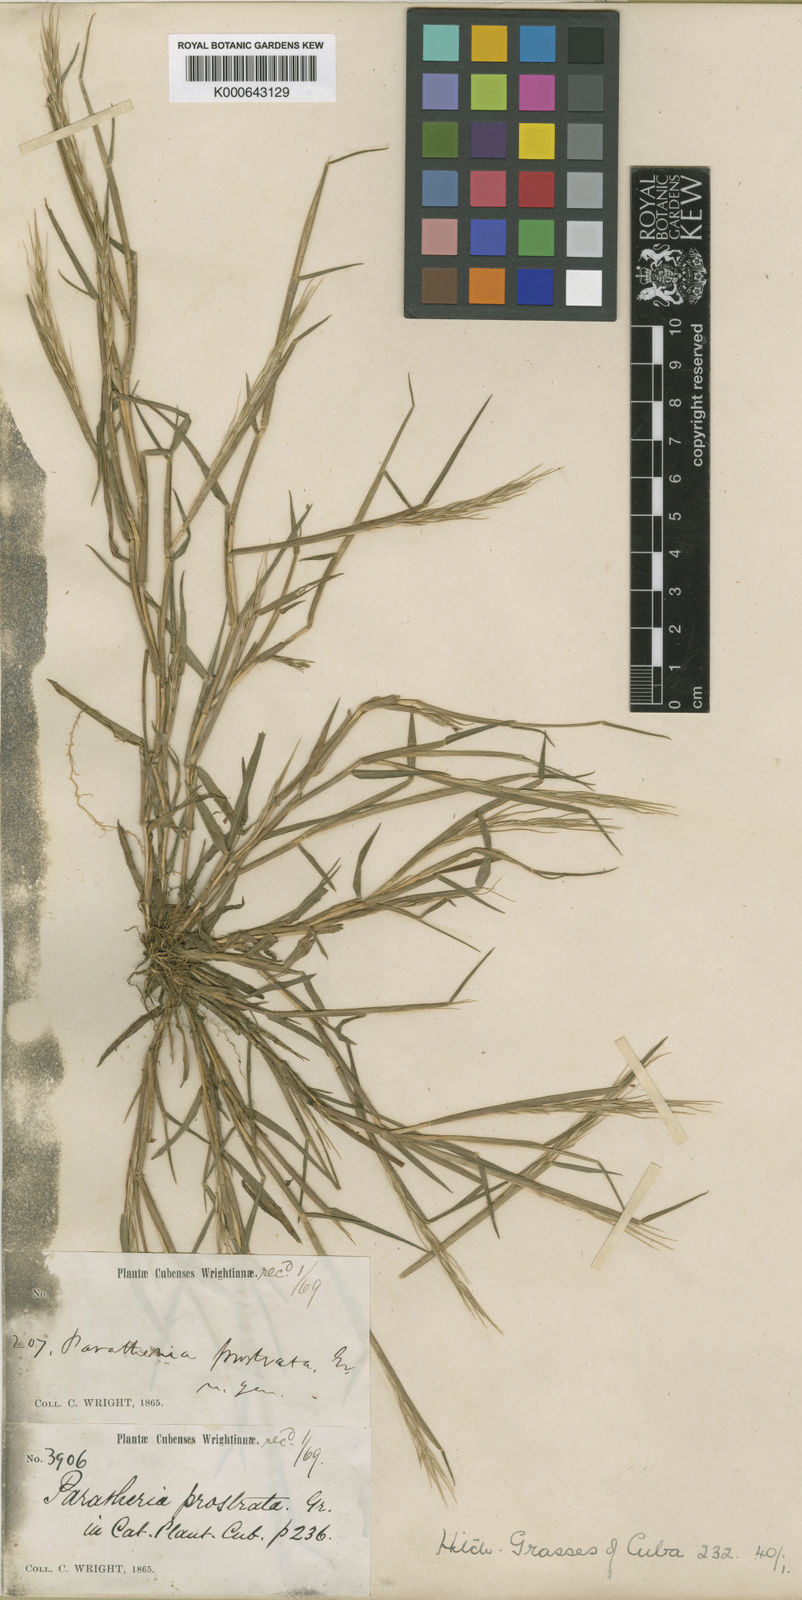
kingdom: Plantae
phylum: Tracheophyta
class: Liliopsida
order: Poales
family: Poaceae
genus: Paratheria
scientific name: Paratheria prostrata
